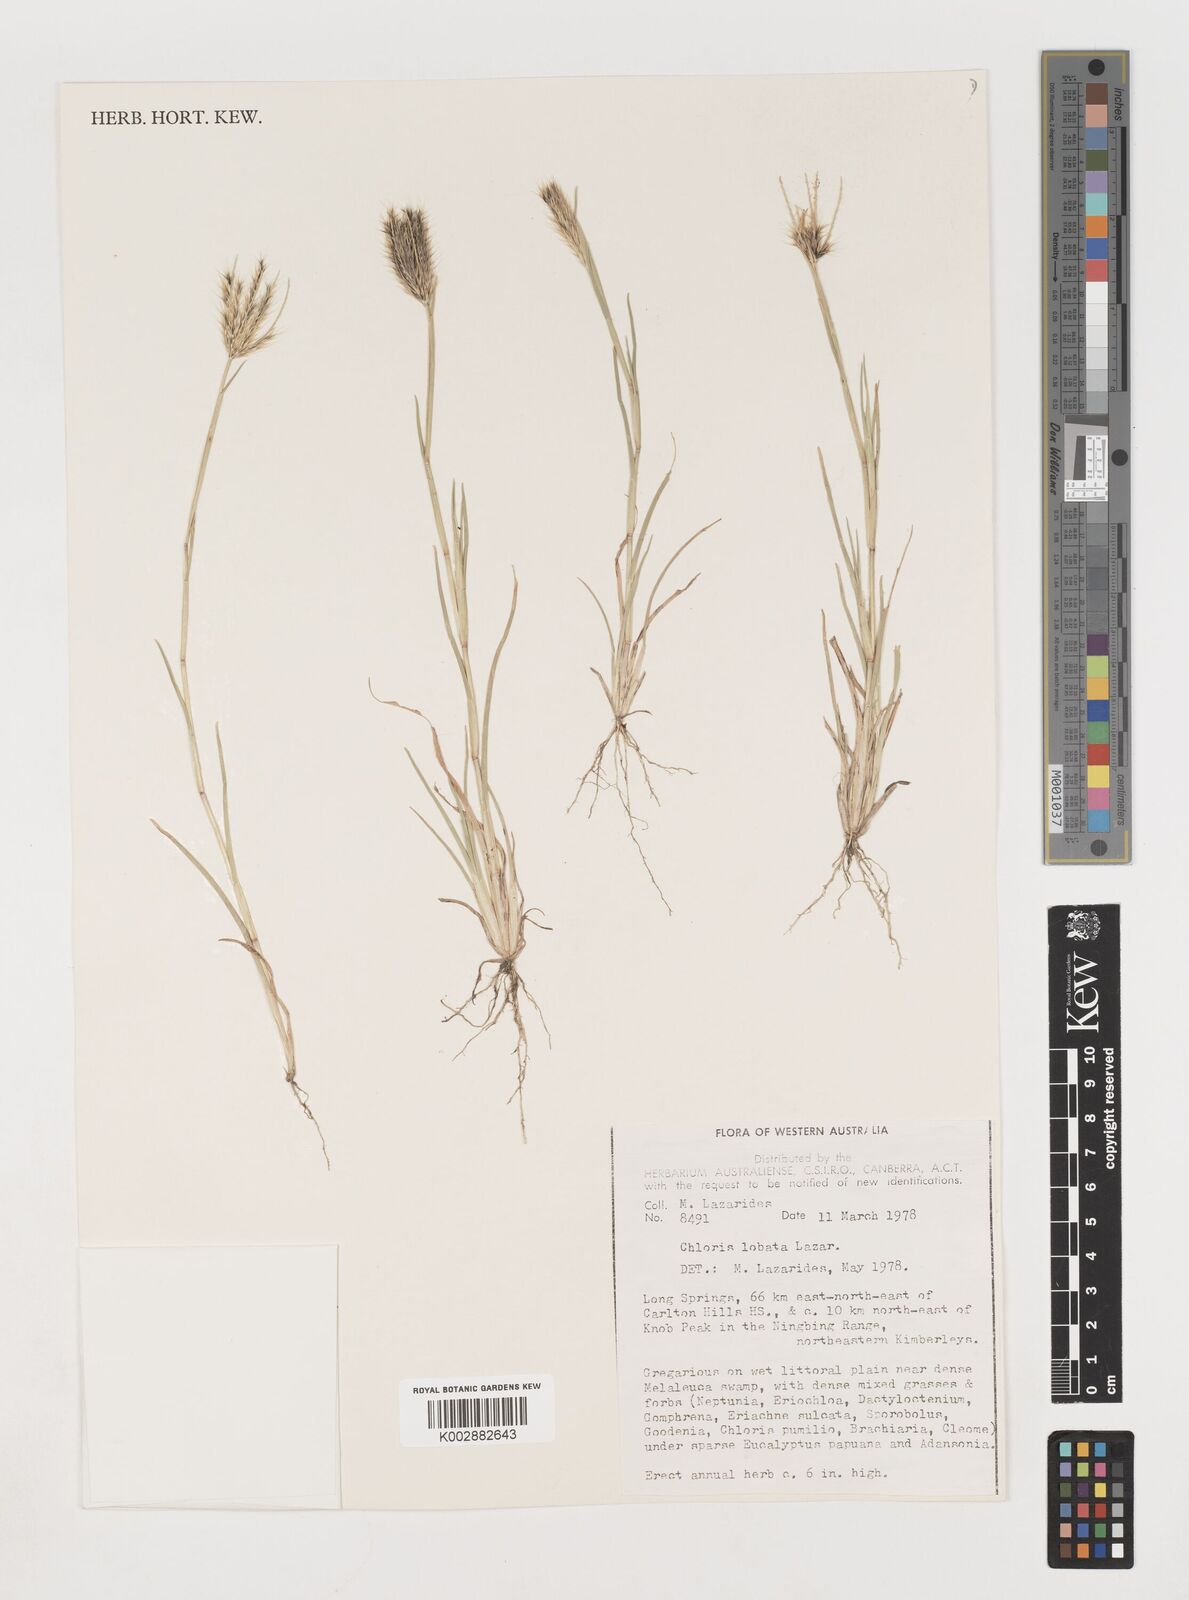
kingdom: Plantae
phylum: Tracheophyta
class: Liliopsida
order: Poales
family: Poaceae
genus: Chloris
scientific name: Chloris lobata
